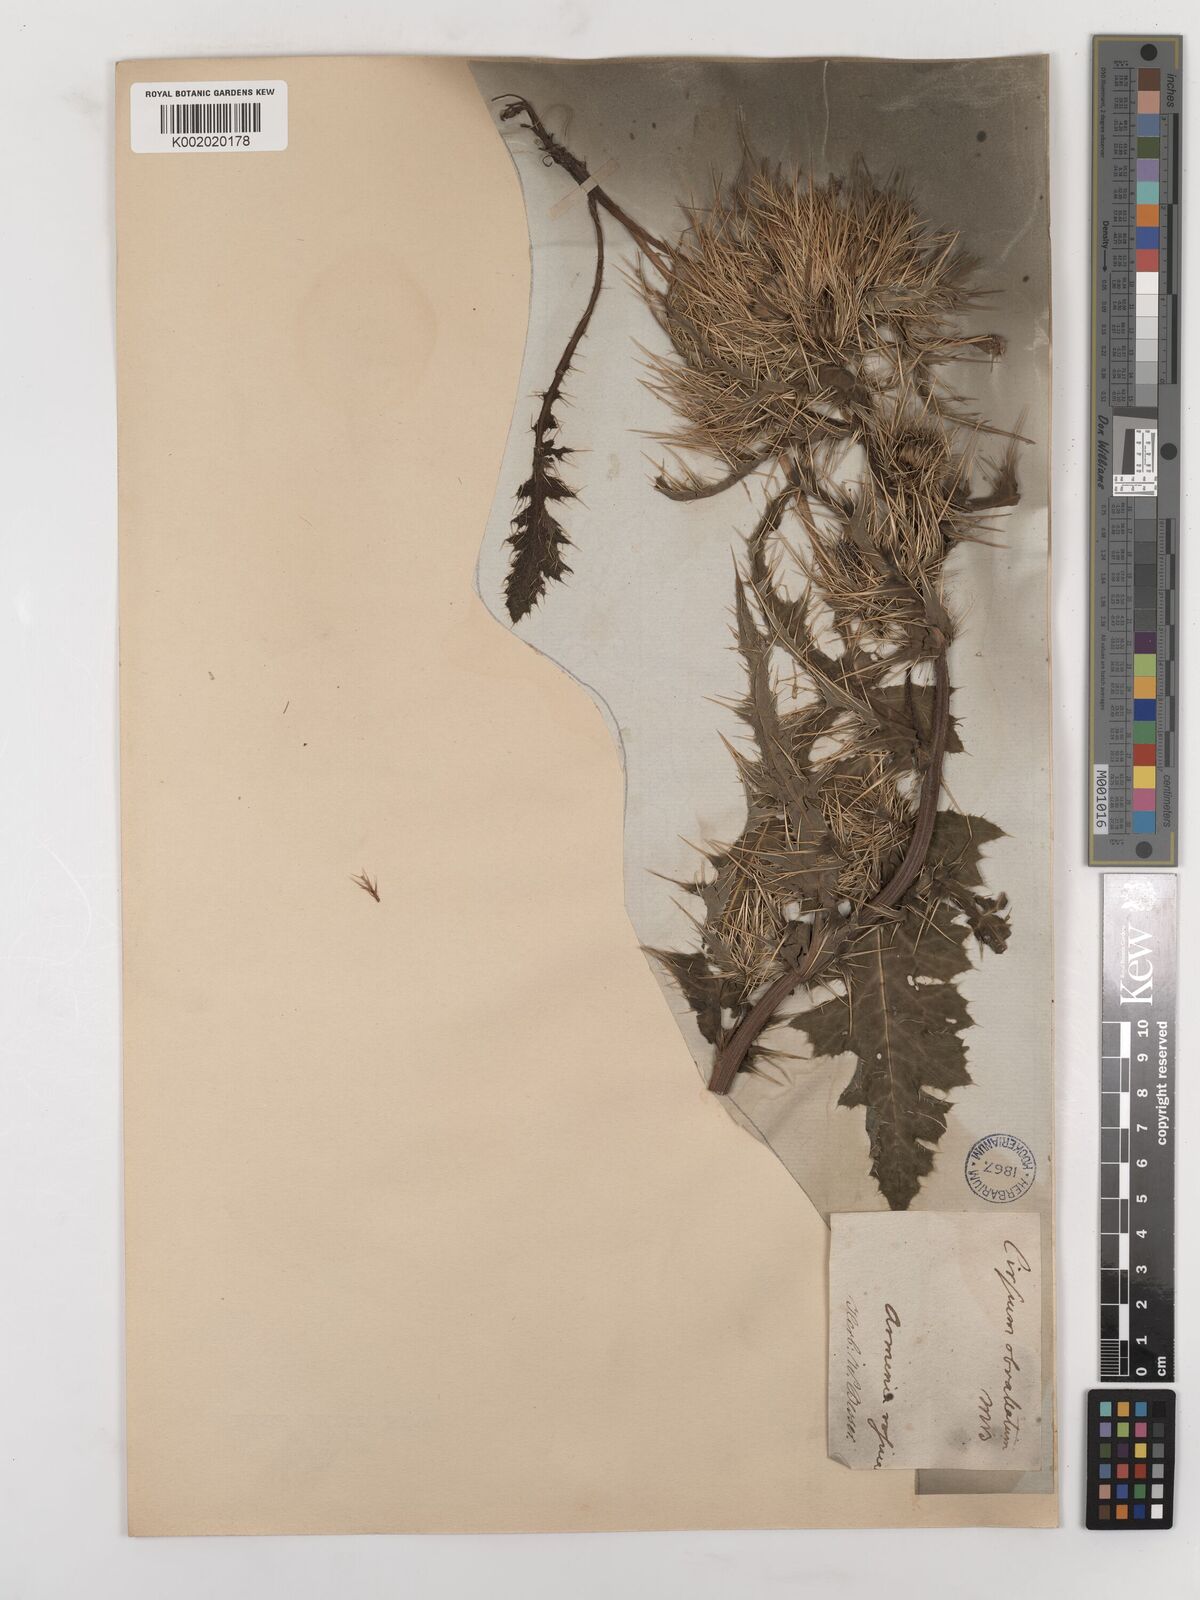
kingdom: Plantae
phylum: Tracheophyta
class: Magnoliopsida
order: Asterales
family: Asteraceae
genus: Cirsium
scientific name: Cirsium obvallatum
